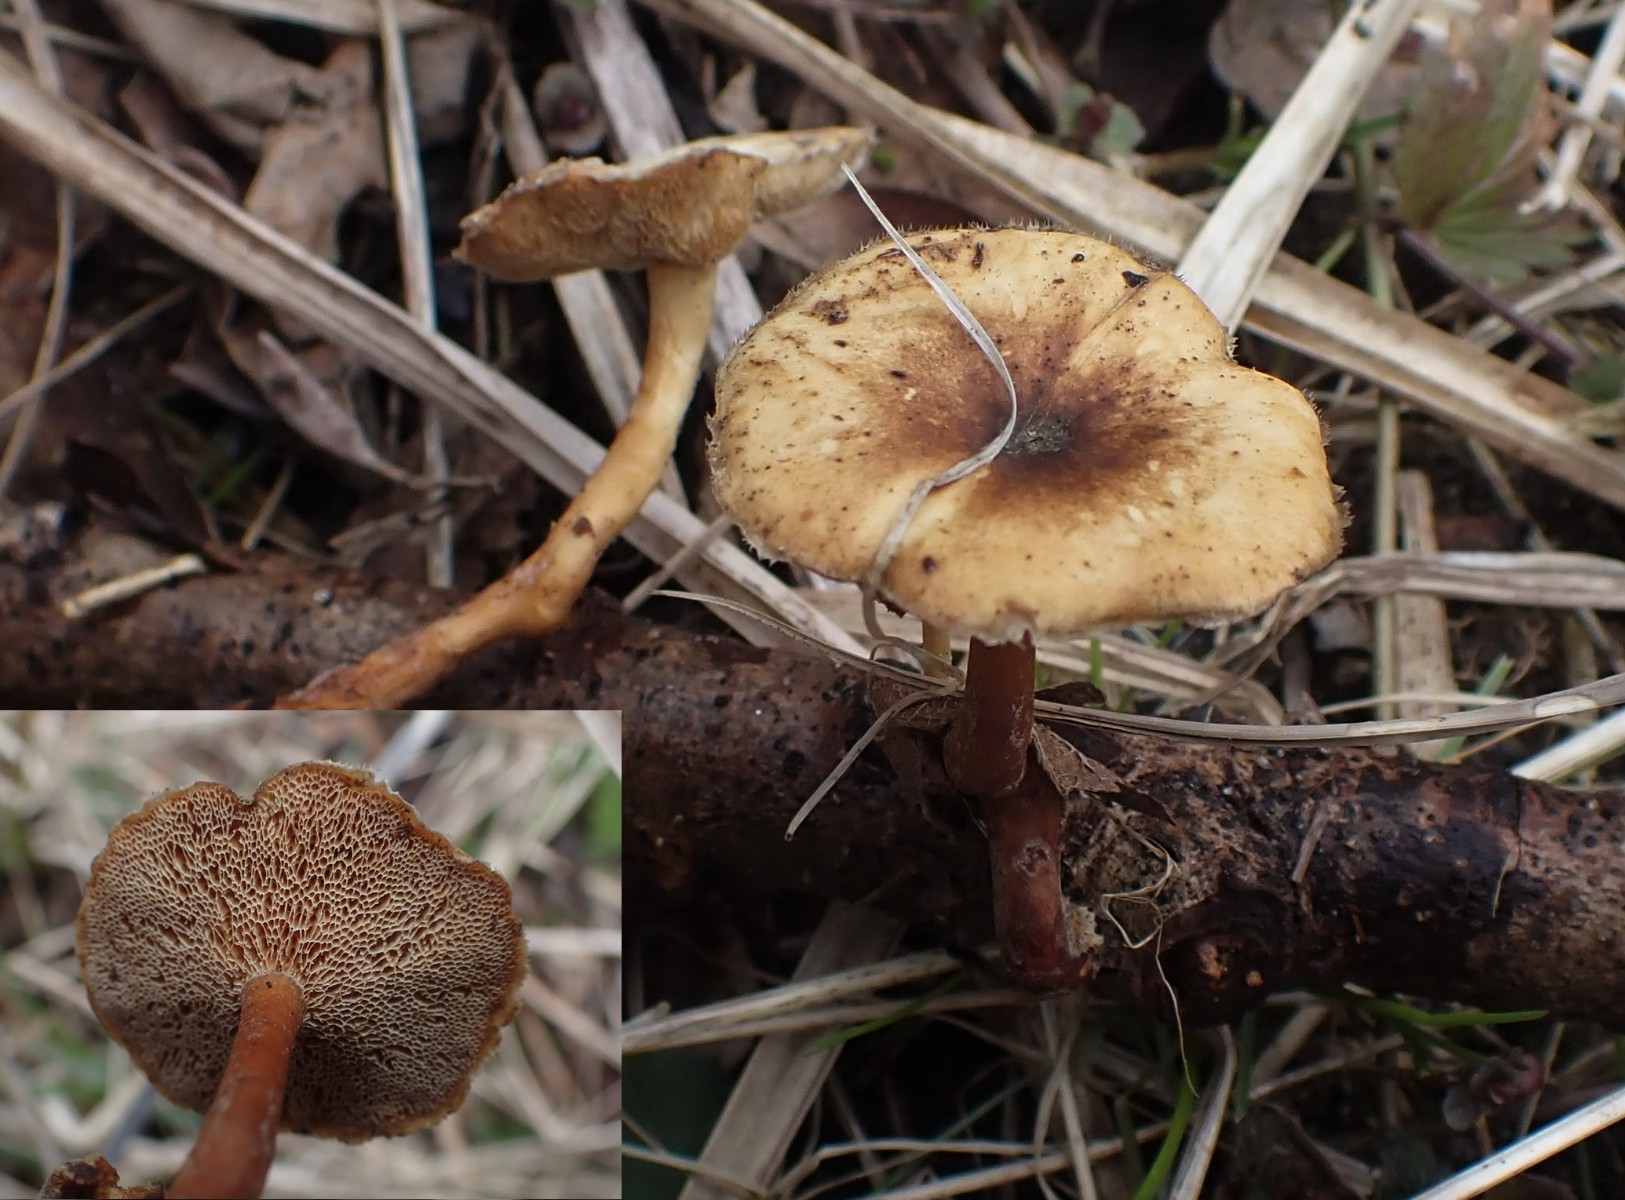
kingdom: Fungi
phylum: Basidiomycota
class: Agaricomycetes
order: Polyporales
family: Polyporaceae
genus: Lentinus
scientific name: Lentinus brumalis
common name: vinter-stilkporesvamp
